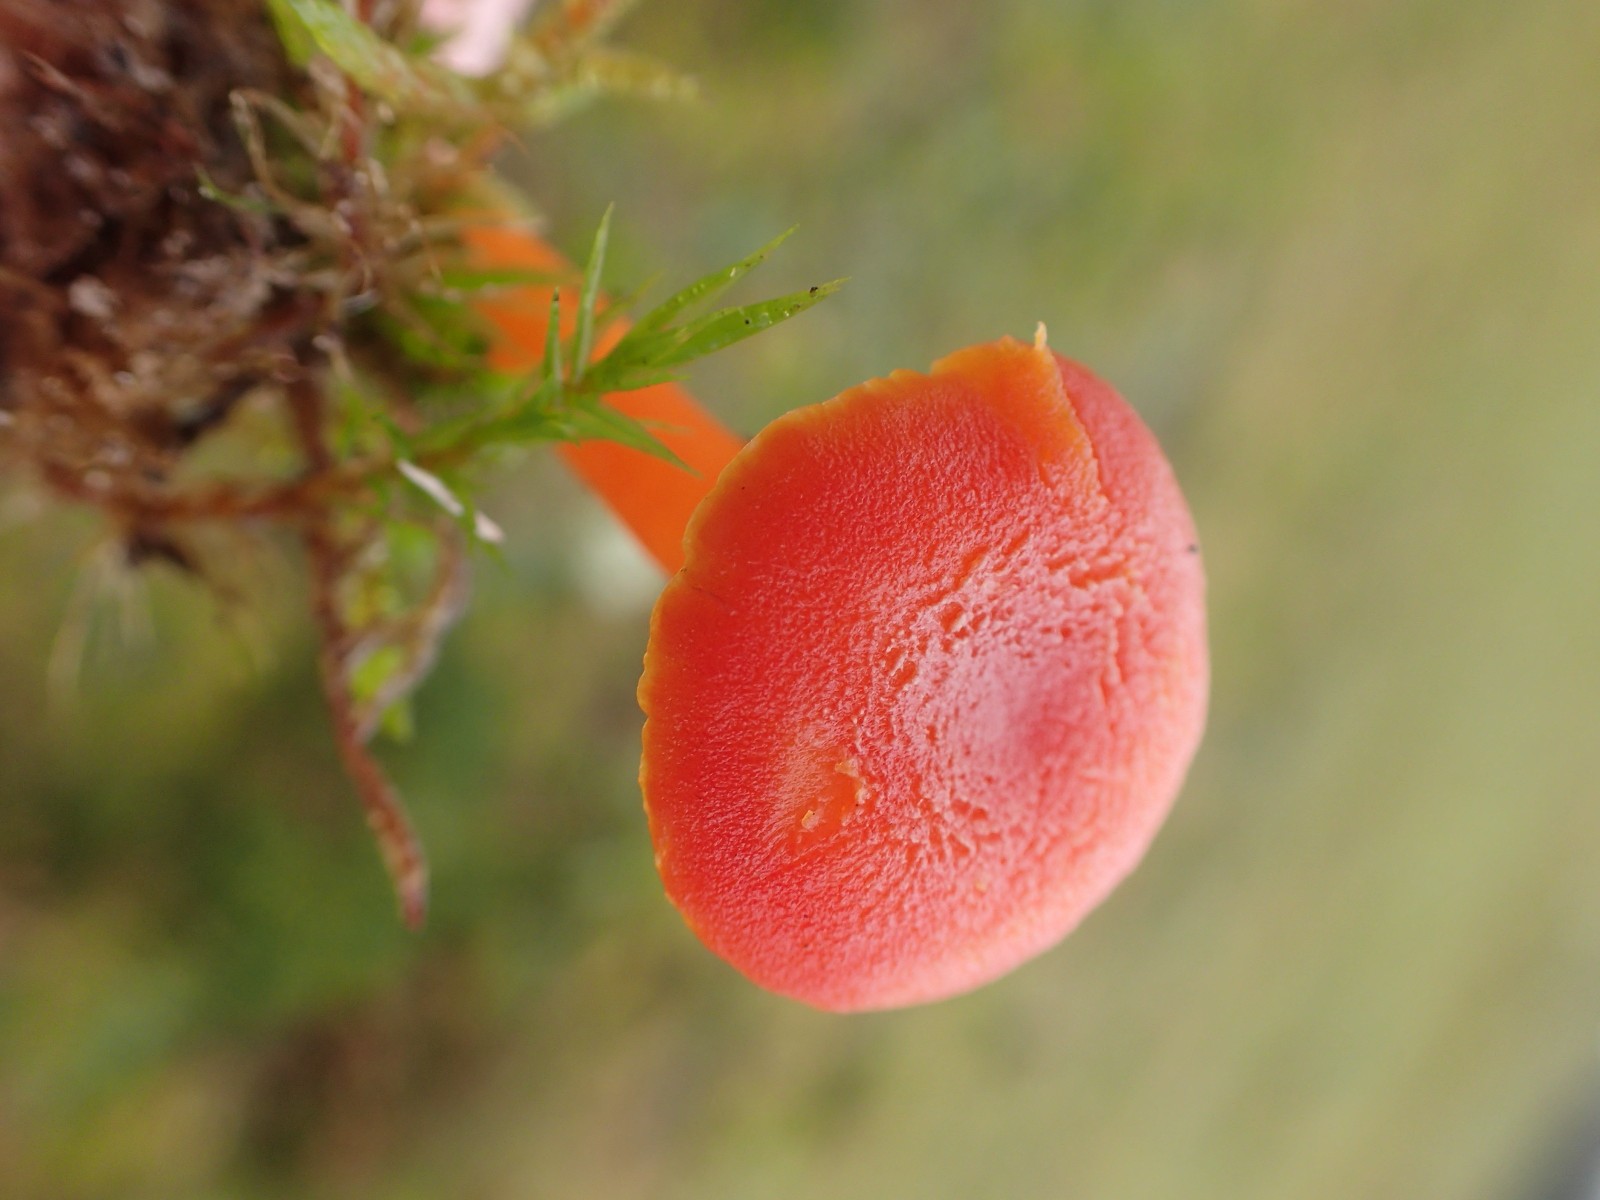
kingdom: Fungi
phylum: Basidiomycota
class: Agaricomycetes
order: Agaricales
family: Hygrophoraceae
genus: Hygrocybe
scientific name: Hygrocybe miniata
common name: mønje-vokshat
